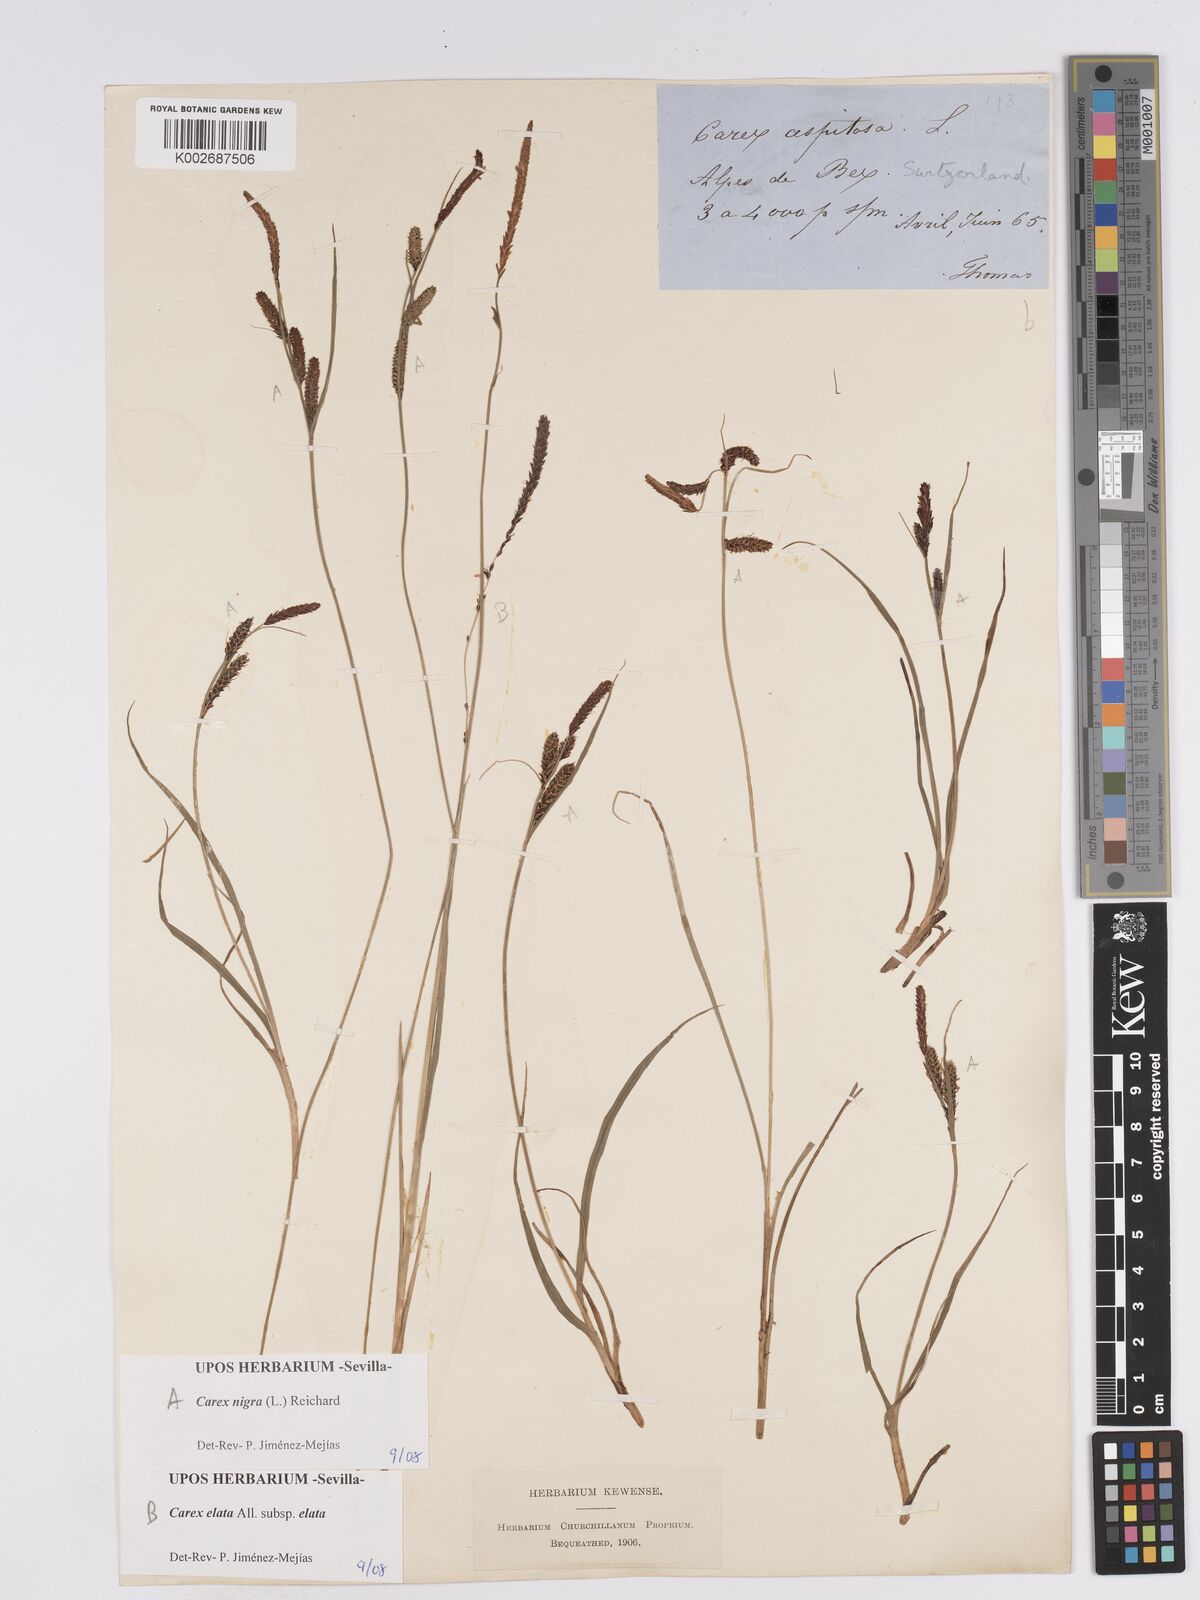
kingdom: Plantae
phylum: Tracheophyta
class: Liliopsida
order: Poales
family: Cyperaceae
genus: Carex
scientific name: Carex nigra
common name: Common sedge
